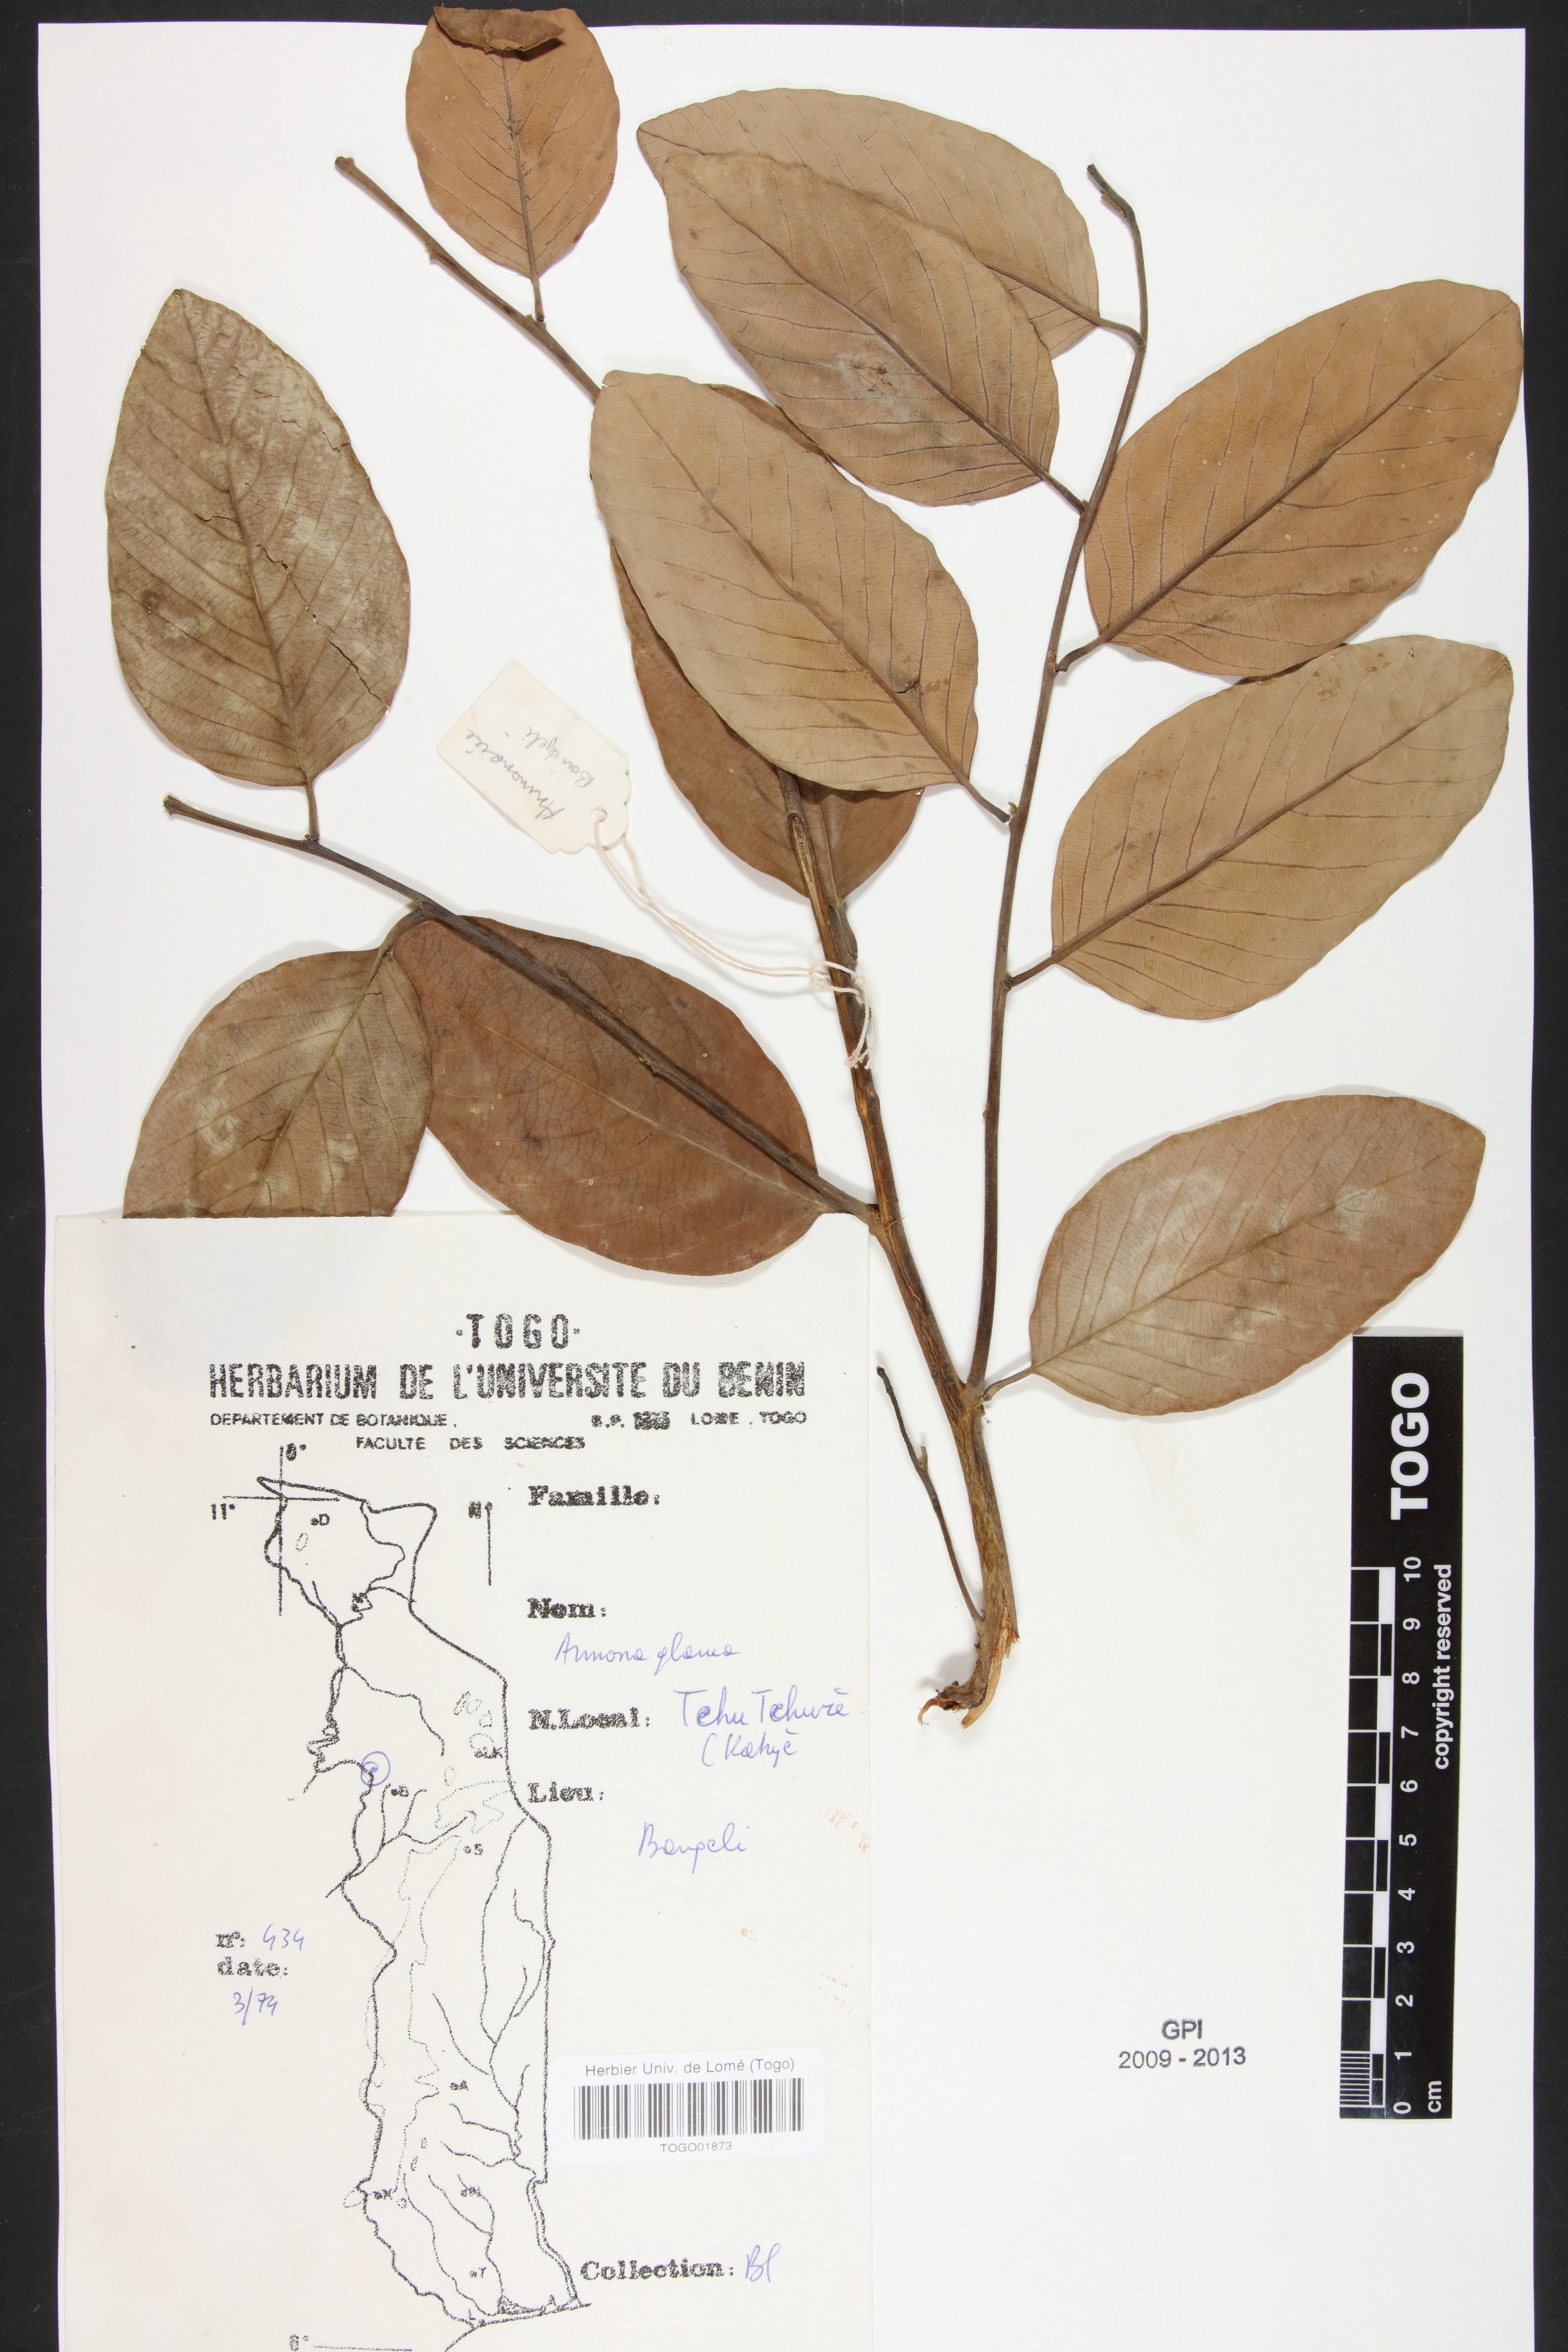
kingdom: Plantae
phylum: Tracheophyta
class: Magnoliopsida
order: Magnoliales
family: Annonaceae
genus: Annona
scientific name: Annona glauca
